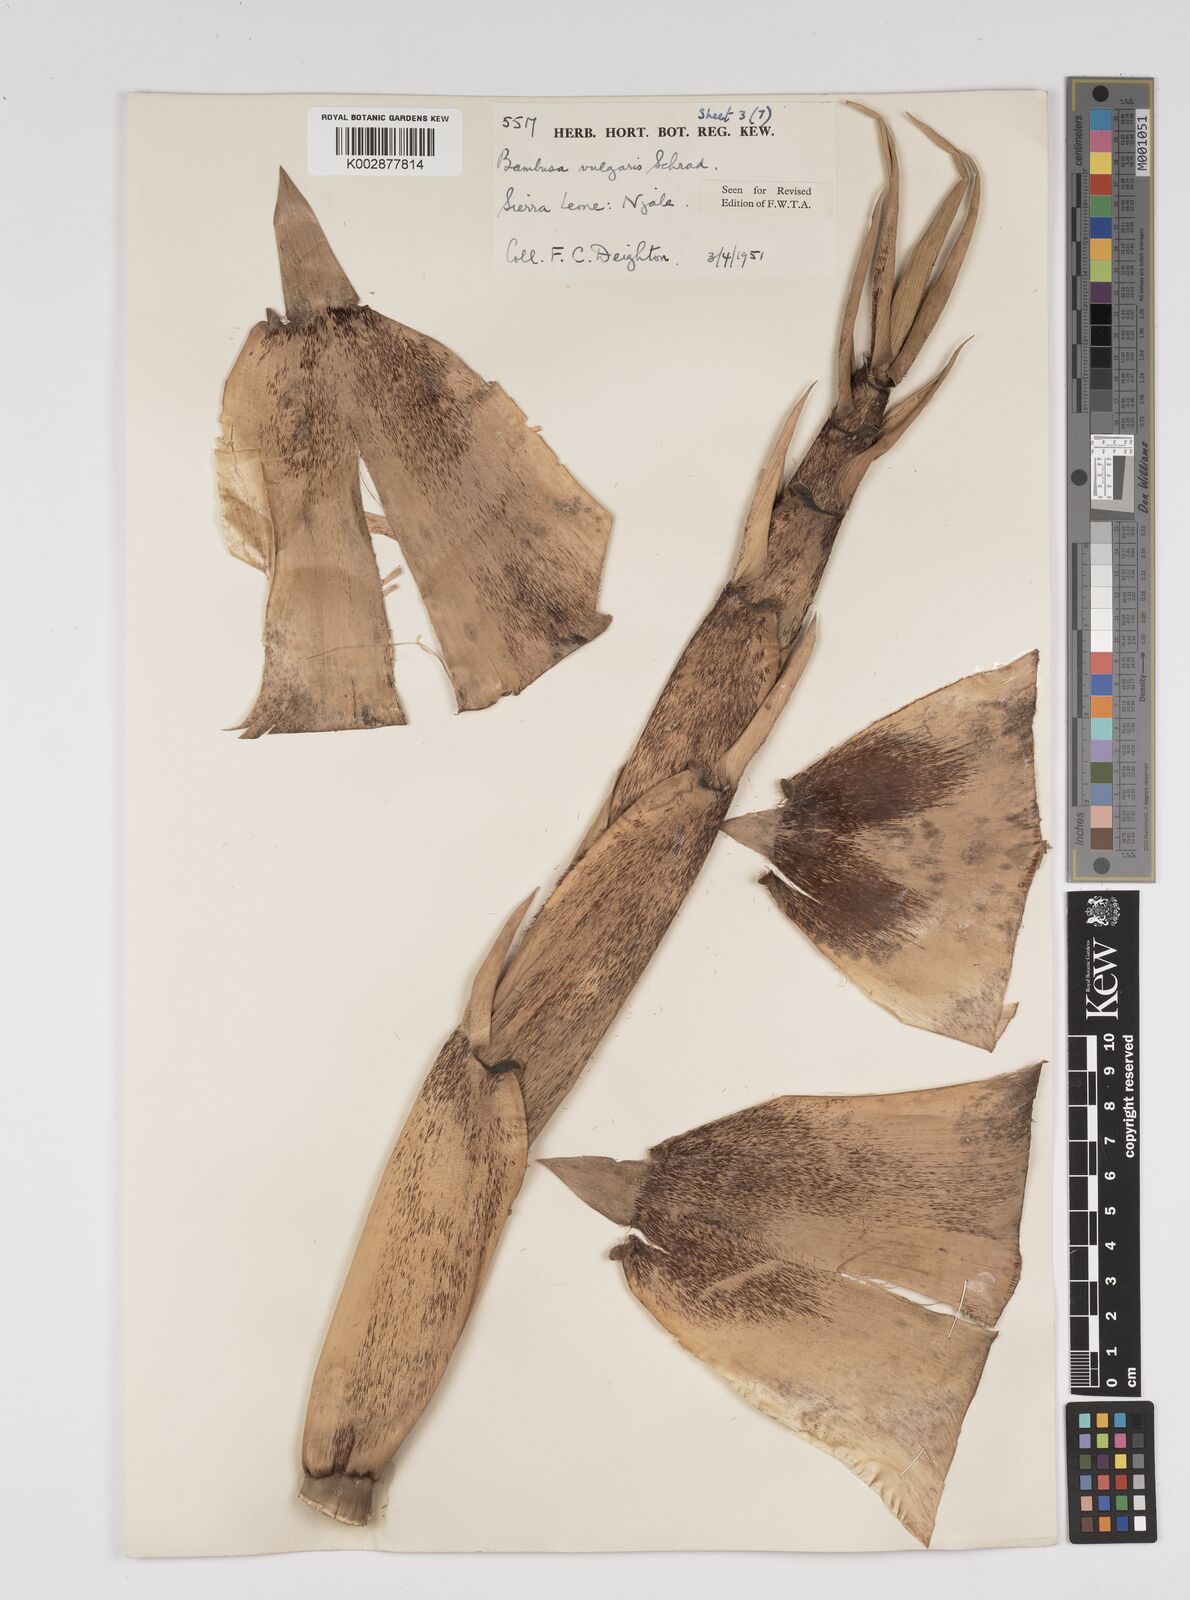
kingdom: Plantae
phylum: Tracheophyta
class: Liliopsida
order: Poales
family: Poaceae
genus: Bambusa
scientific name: Bambusa vulgaris
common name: Common bamboo
